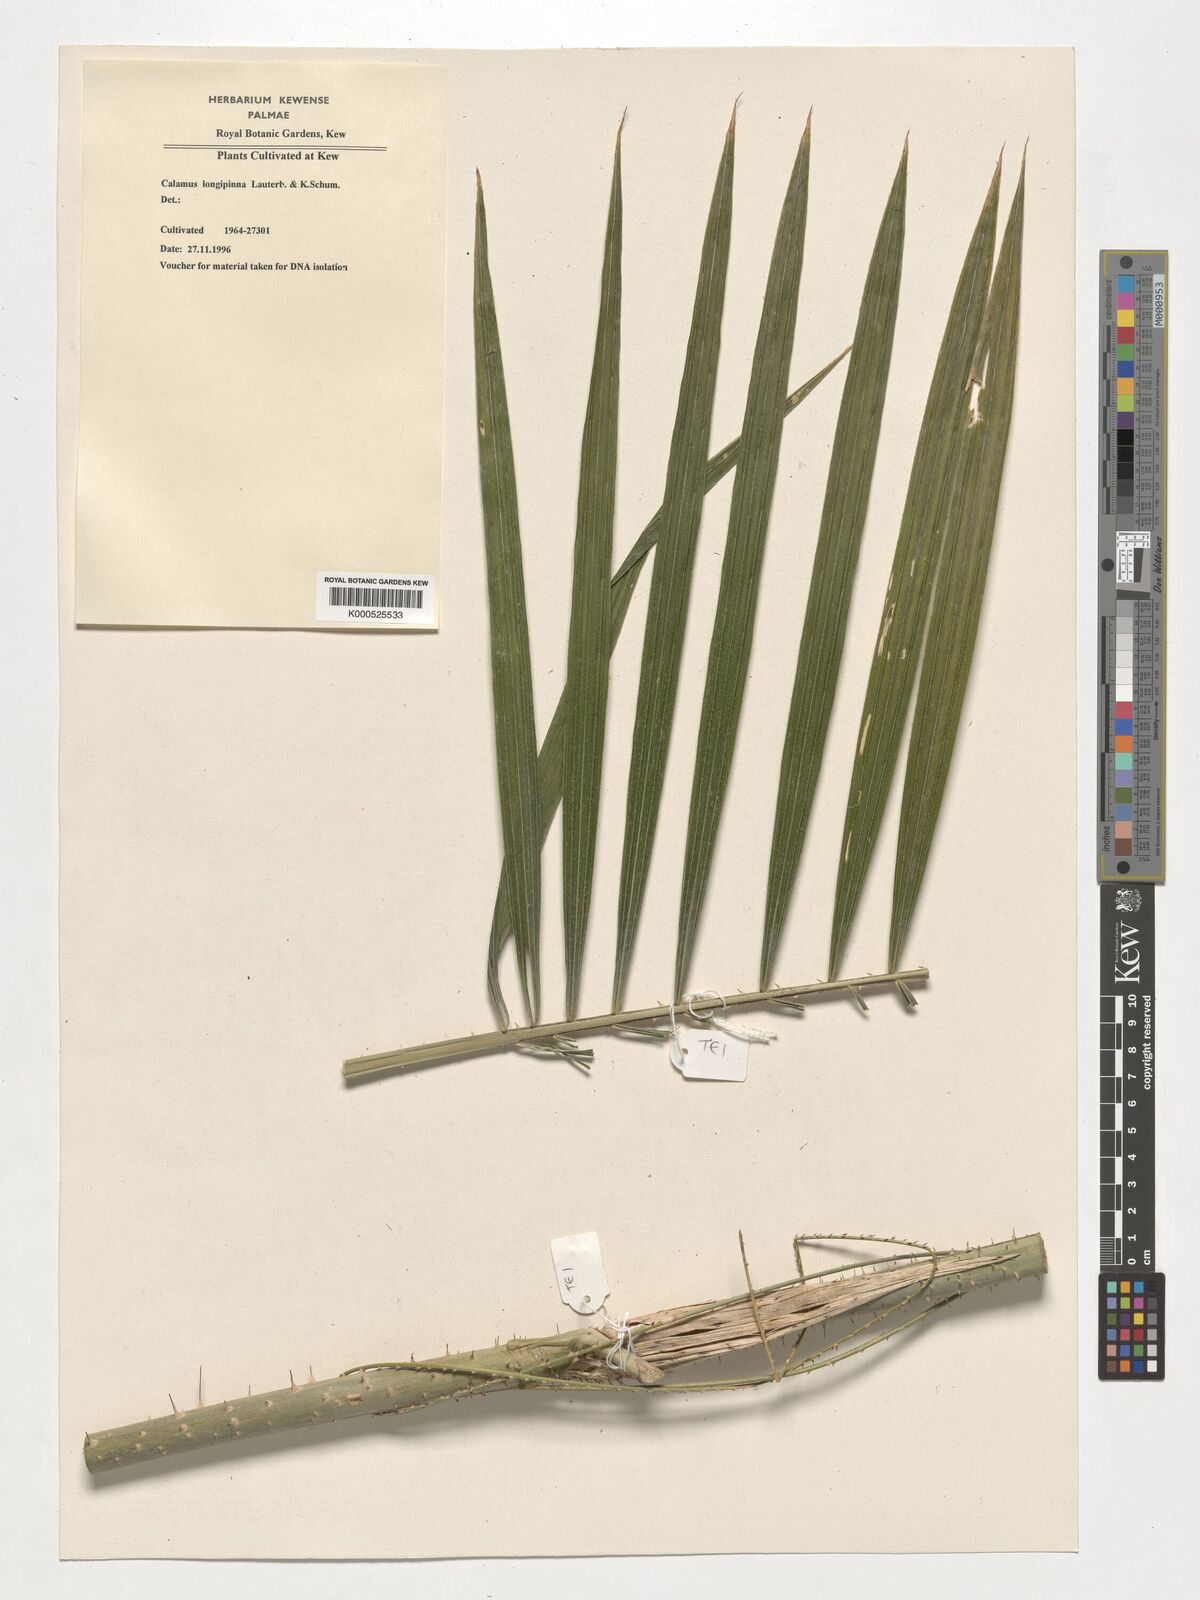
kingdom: Plantae
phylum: Tracheophyta
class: Liliopsida
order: Arecales
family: Arecaceae
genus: Calamus
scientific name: Calamus longipinna
